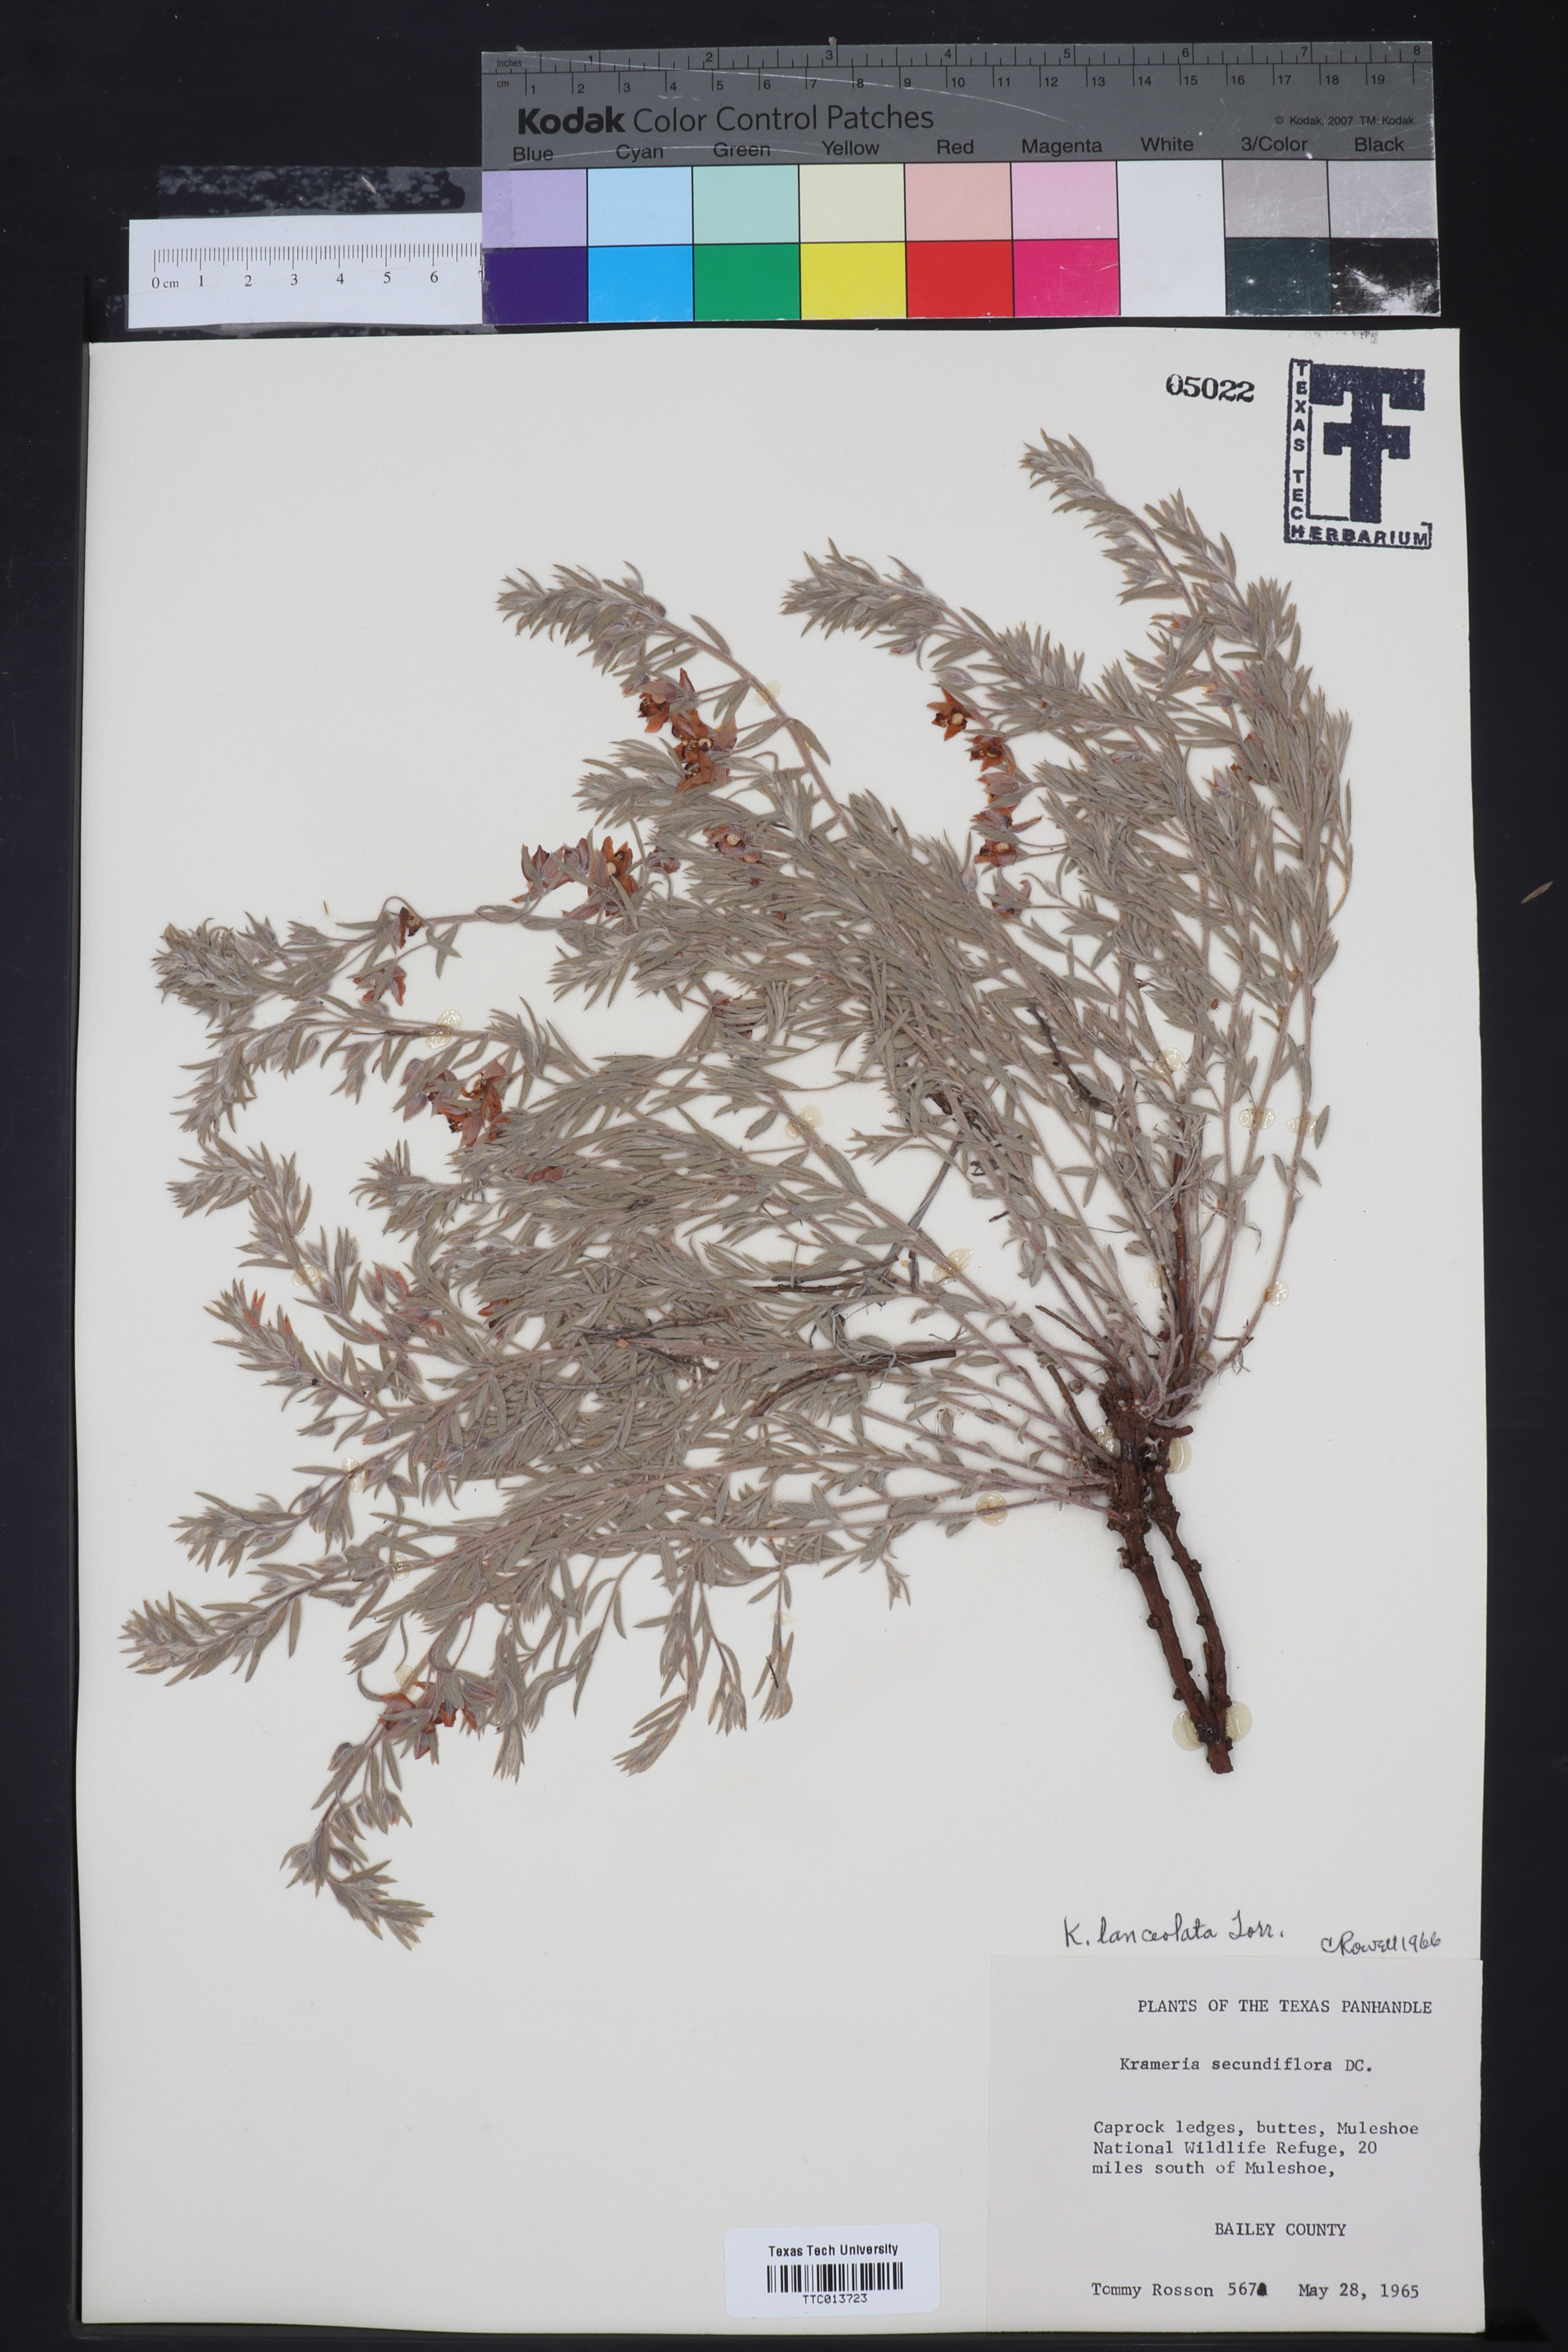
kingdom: Plantae
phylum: Tracheophyta
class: Magnoliopsida
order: Zygophyllales
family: Krameriaceae
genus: Krameria
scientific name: Krameria lanceolata
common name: Ratany
